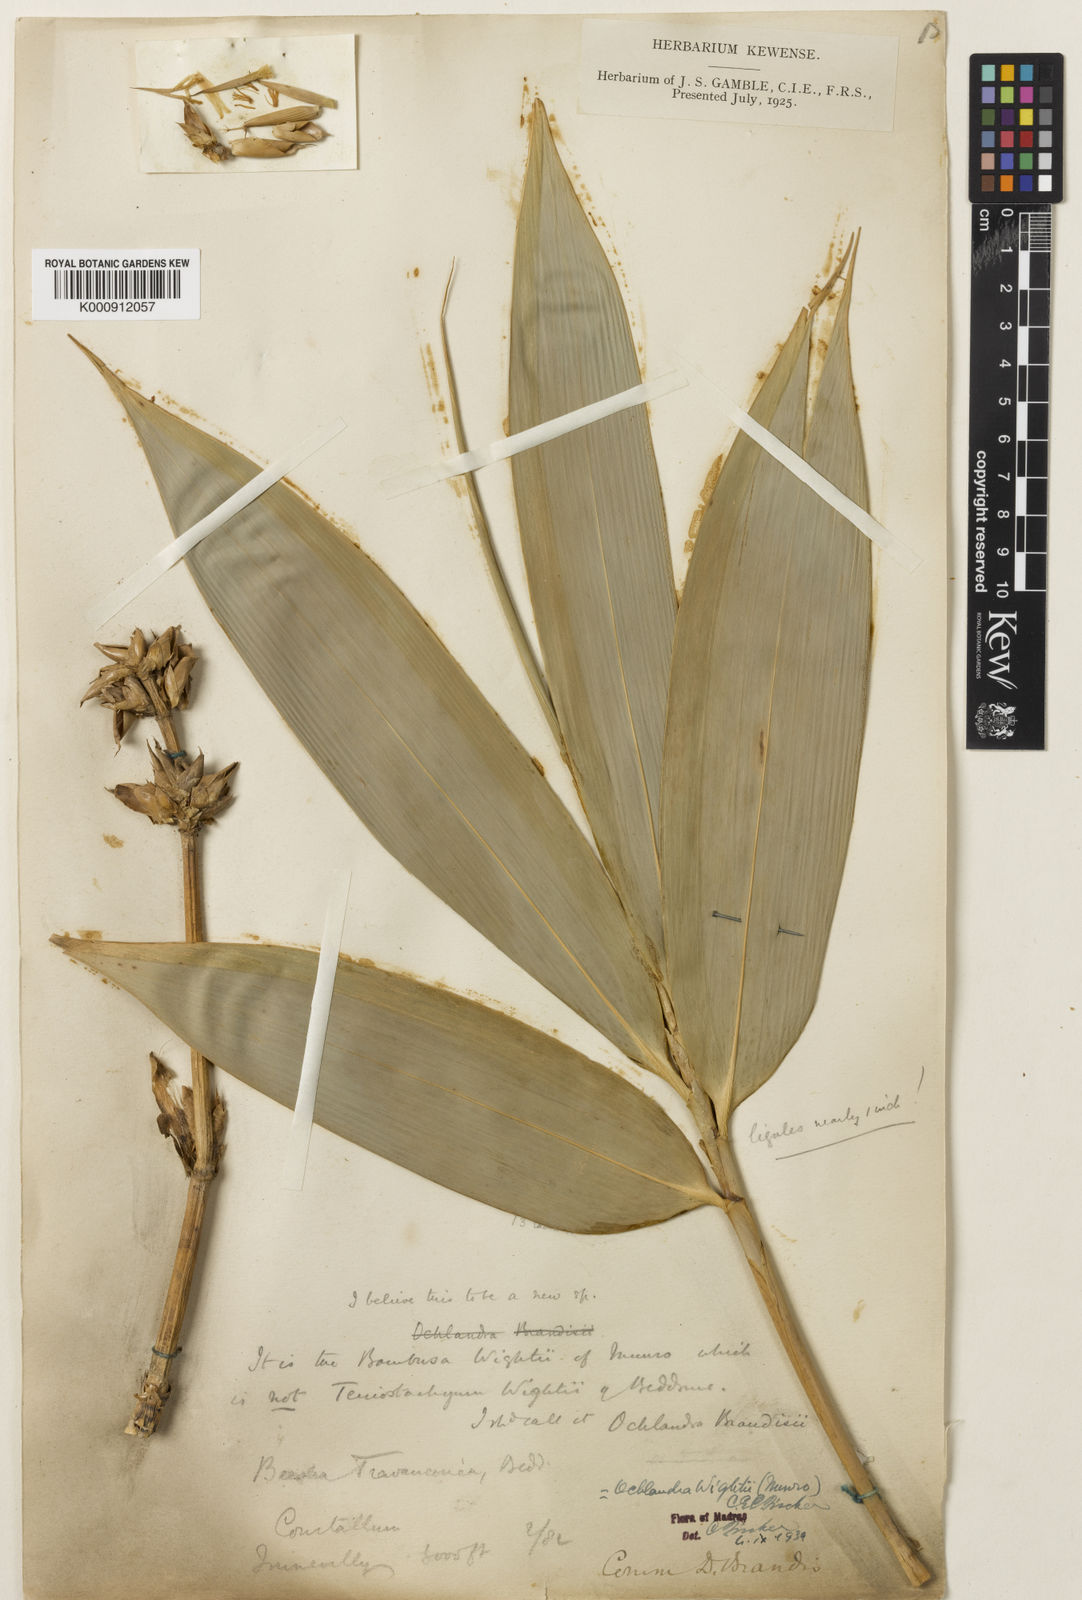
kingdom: Plantae
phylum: Tracheophyta
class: Liliopsida
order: Poales
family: Poaceae
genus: Ochlandra
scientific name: Ochlandra wightii
